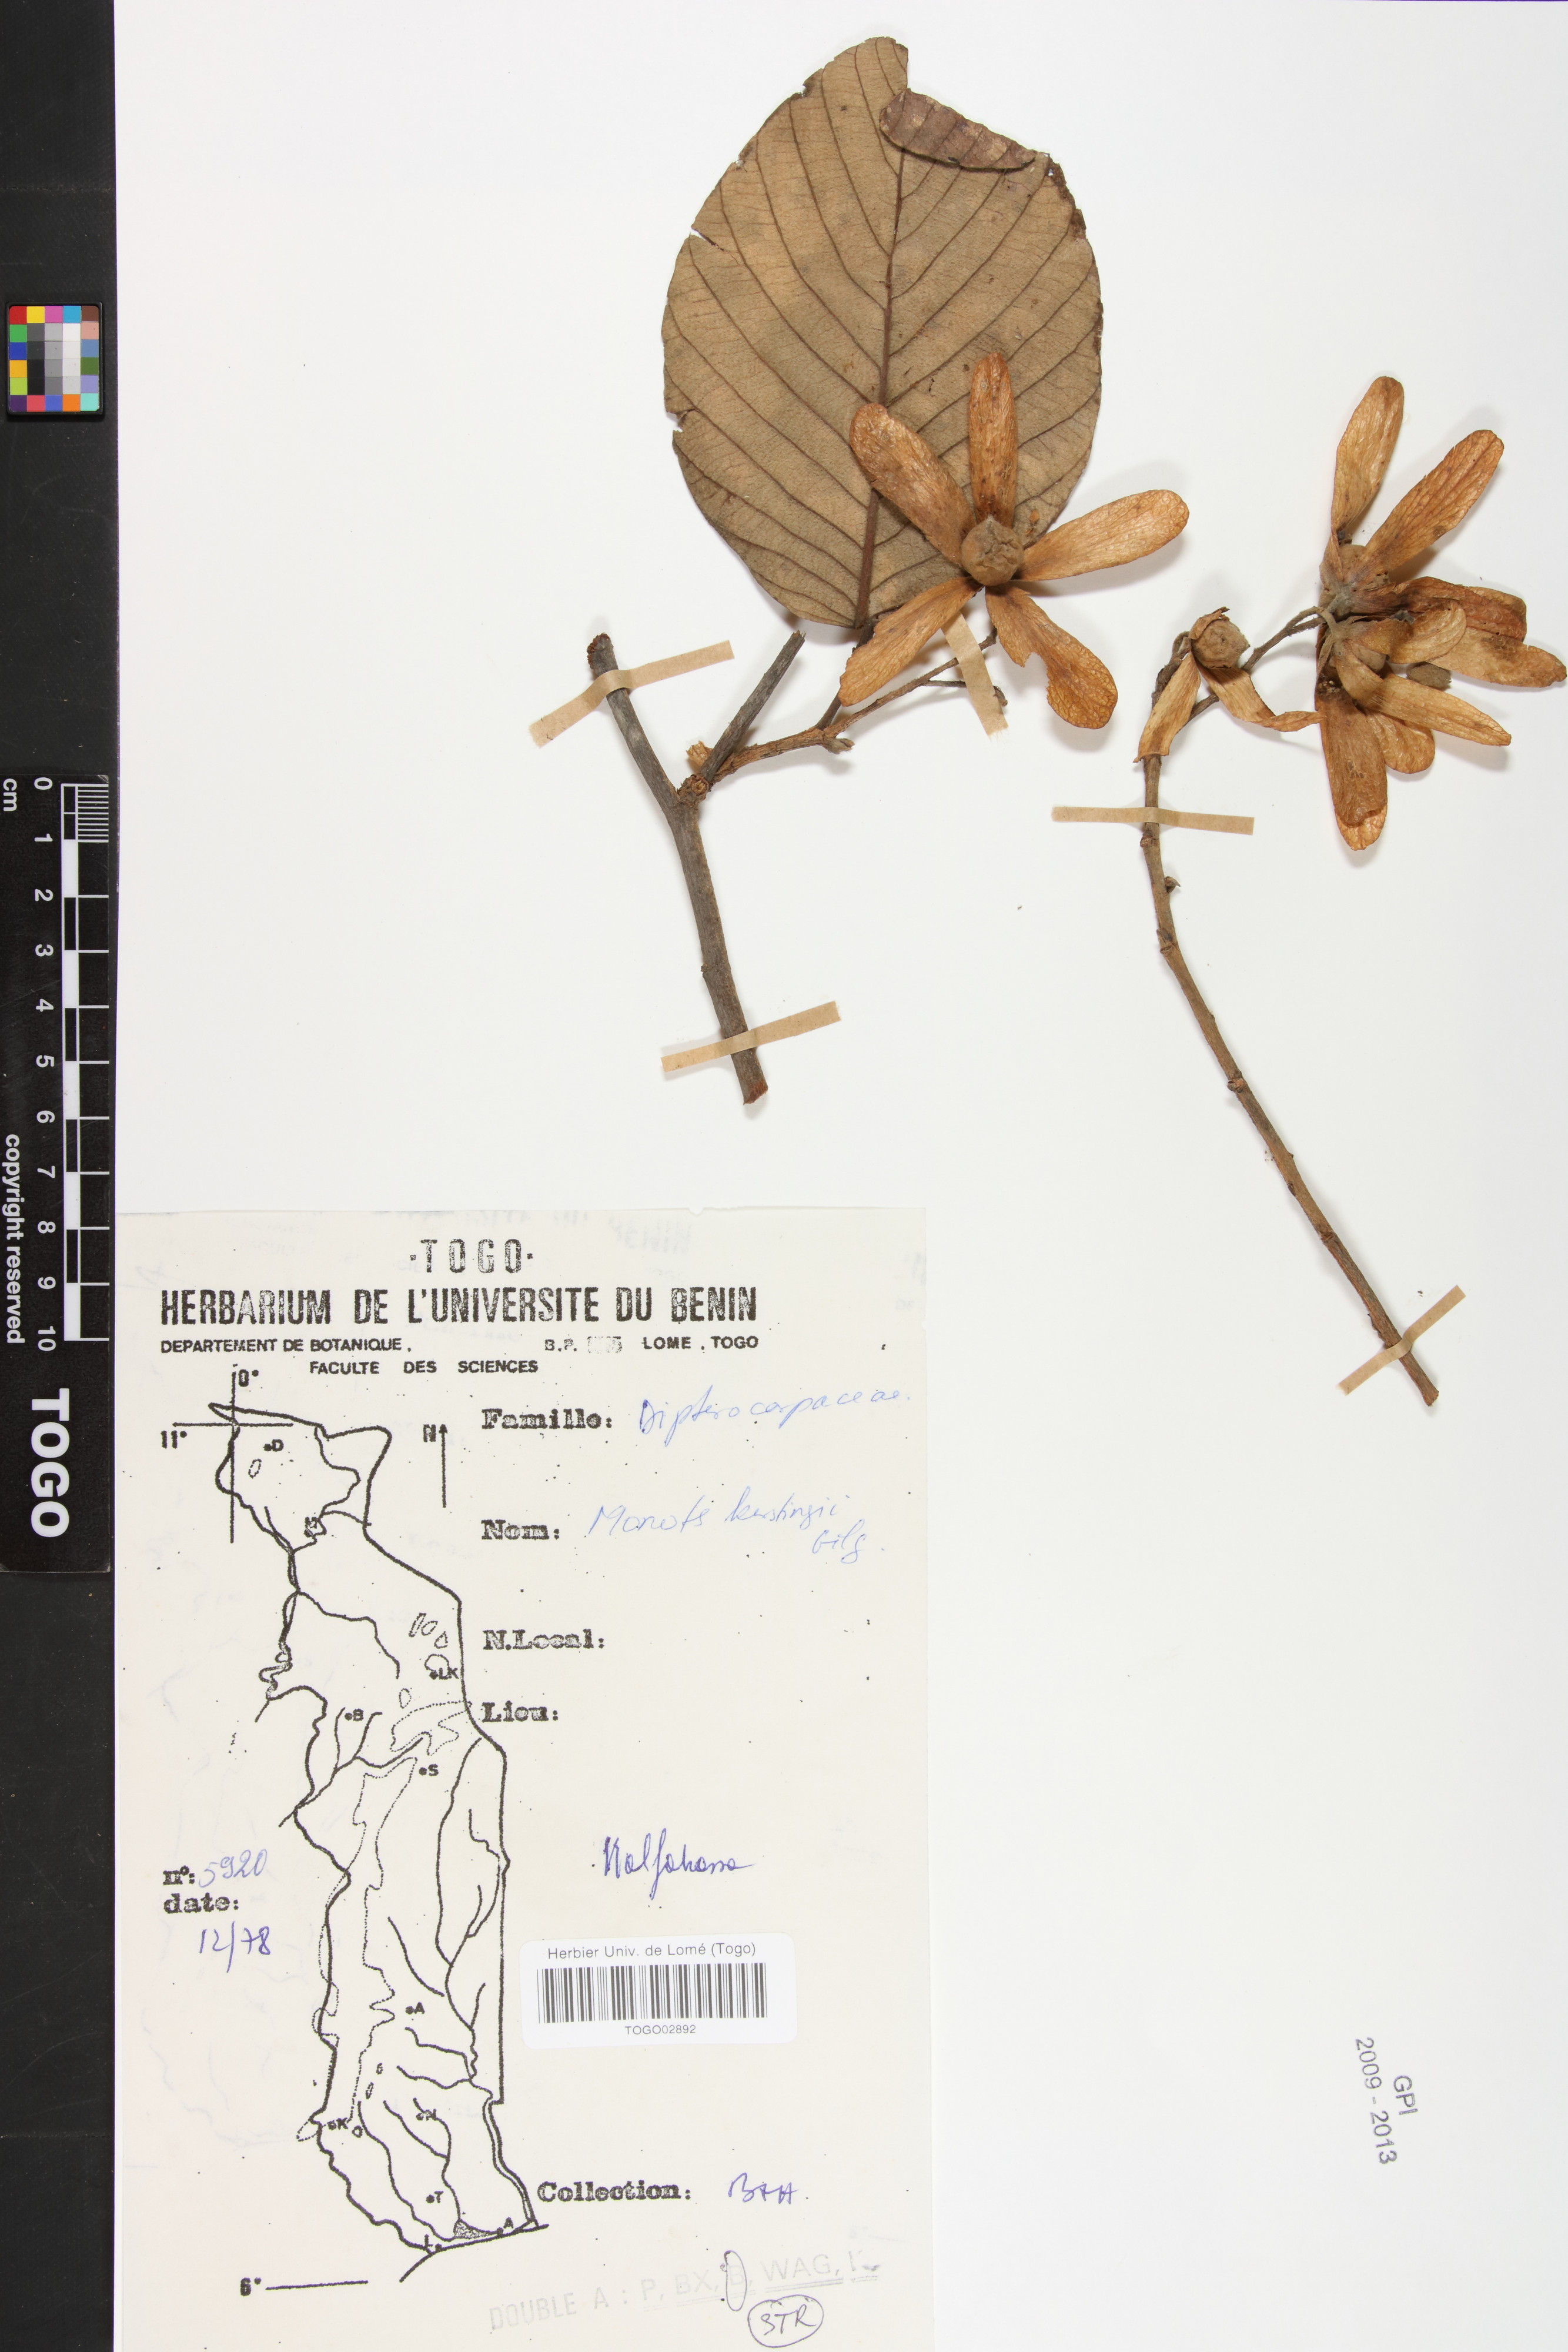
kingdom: Plantae
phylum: Tracheophyta
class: Magnoliopsida
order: Malvales
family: Dipterocarpaceae
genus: Monotes
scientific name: Monotes kerstingii
